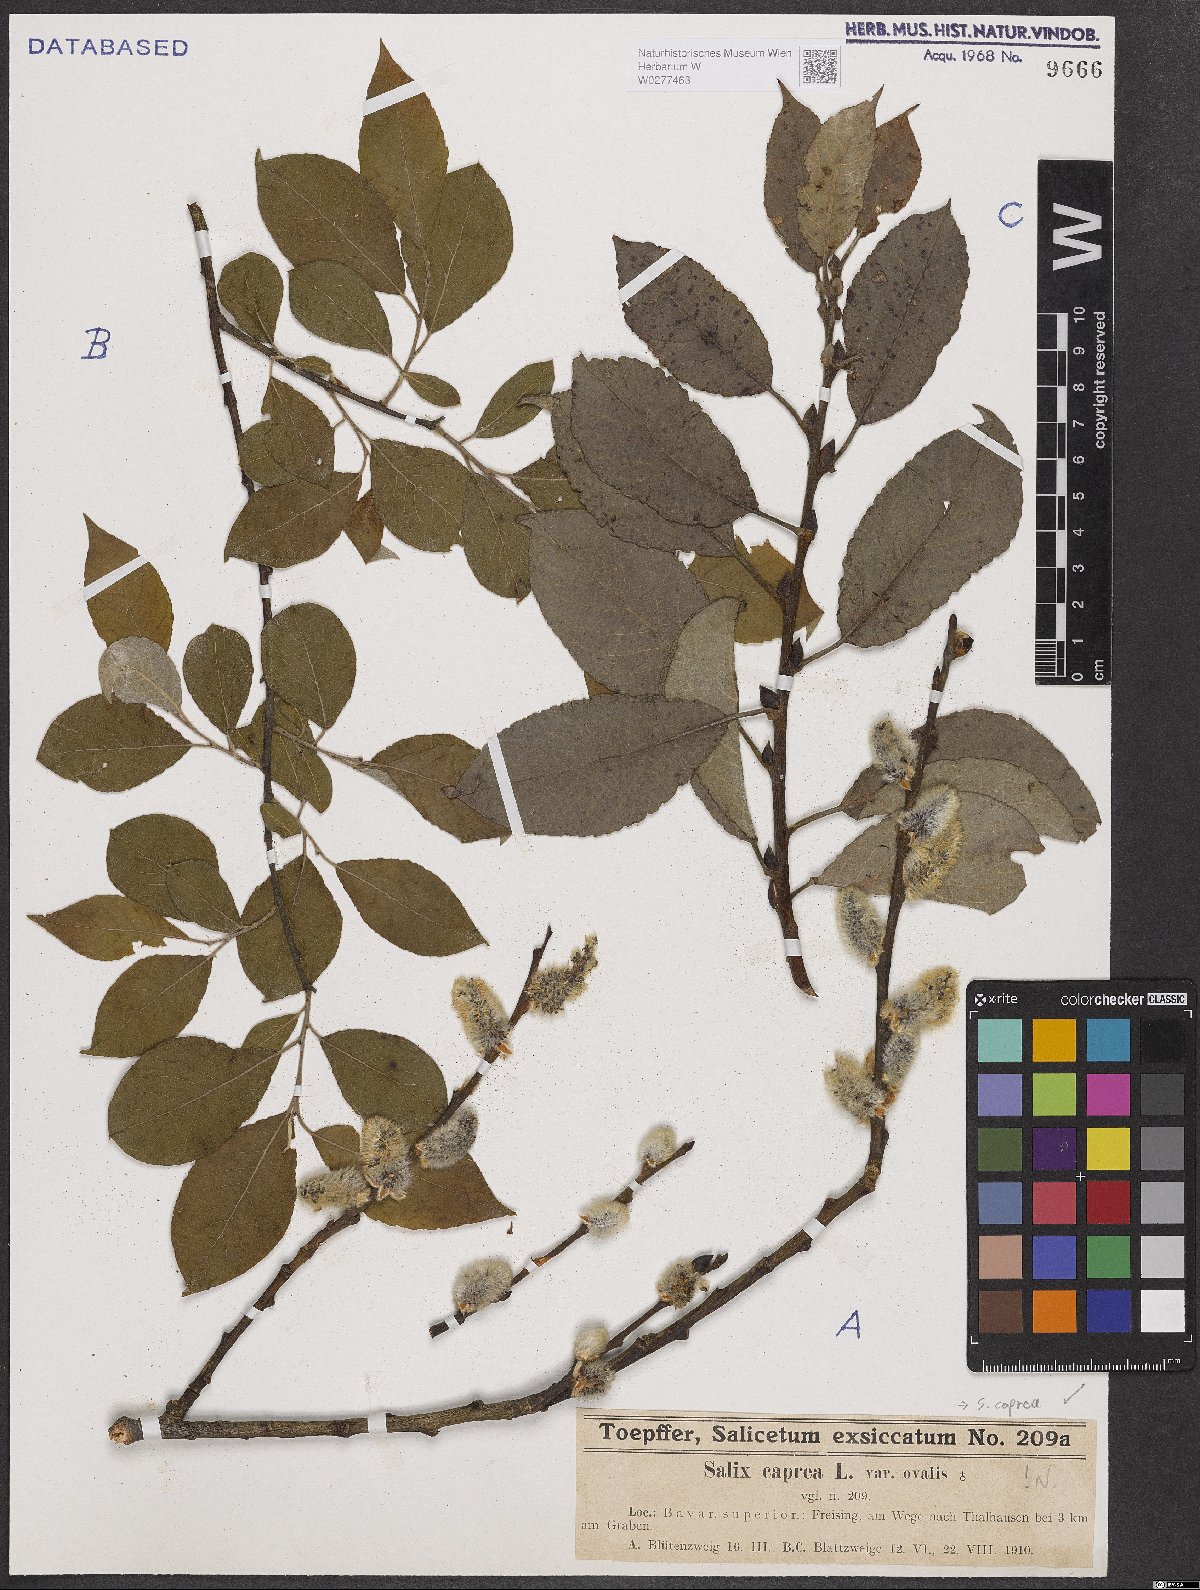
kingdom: Plantae
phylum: Tracheophyta
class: Magnoliopsida
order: Malpighiales
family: Salicaceae
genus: Salix
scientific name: Salix caprea
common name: Goat willow
